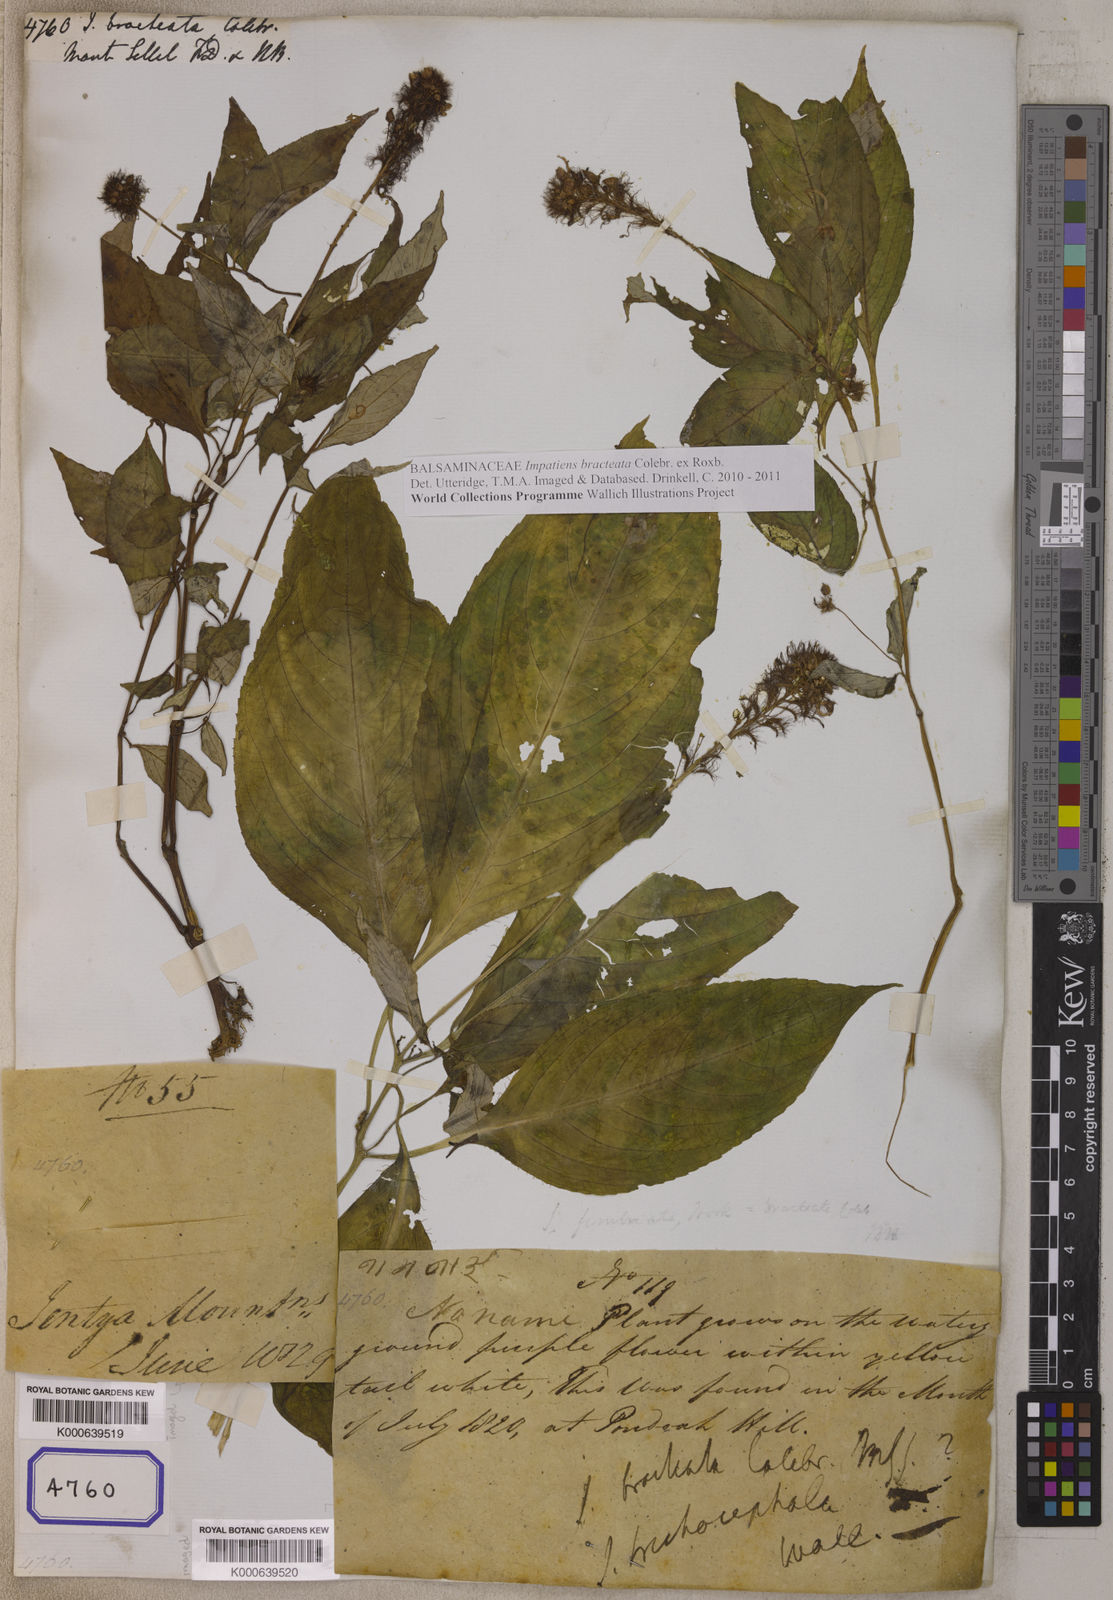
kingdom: Plantae
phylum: Tracheophyta
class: Magnoliopsida
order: Ericales
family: Balsaminaceae
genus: Impatiens
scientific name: Impatiens
